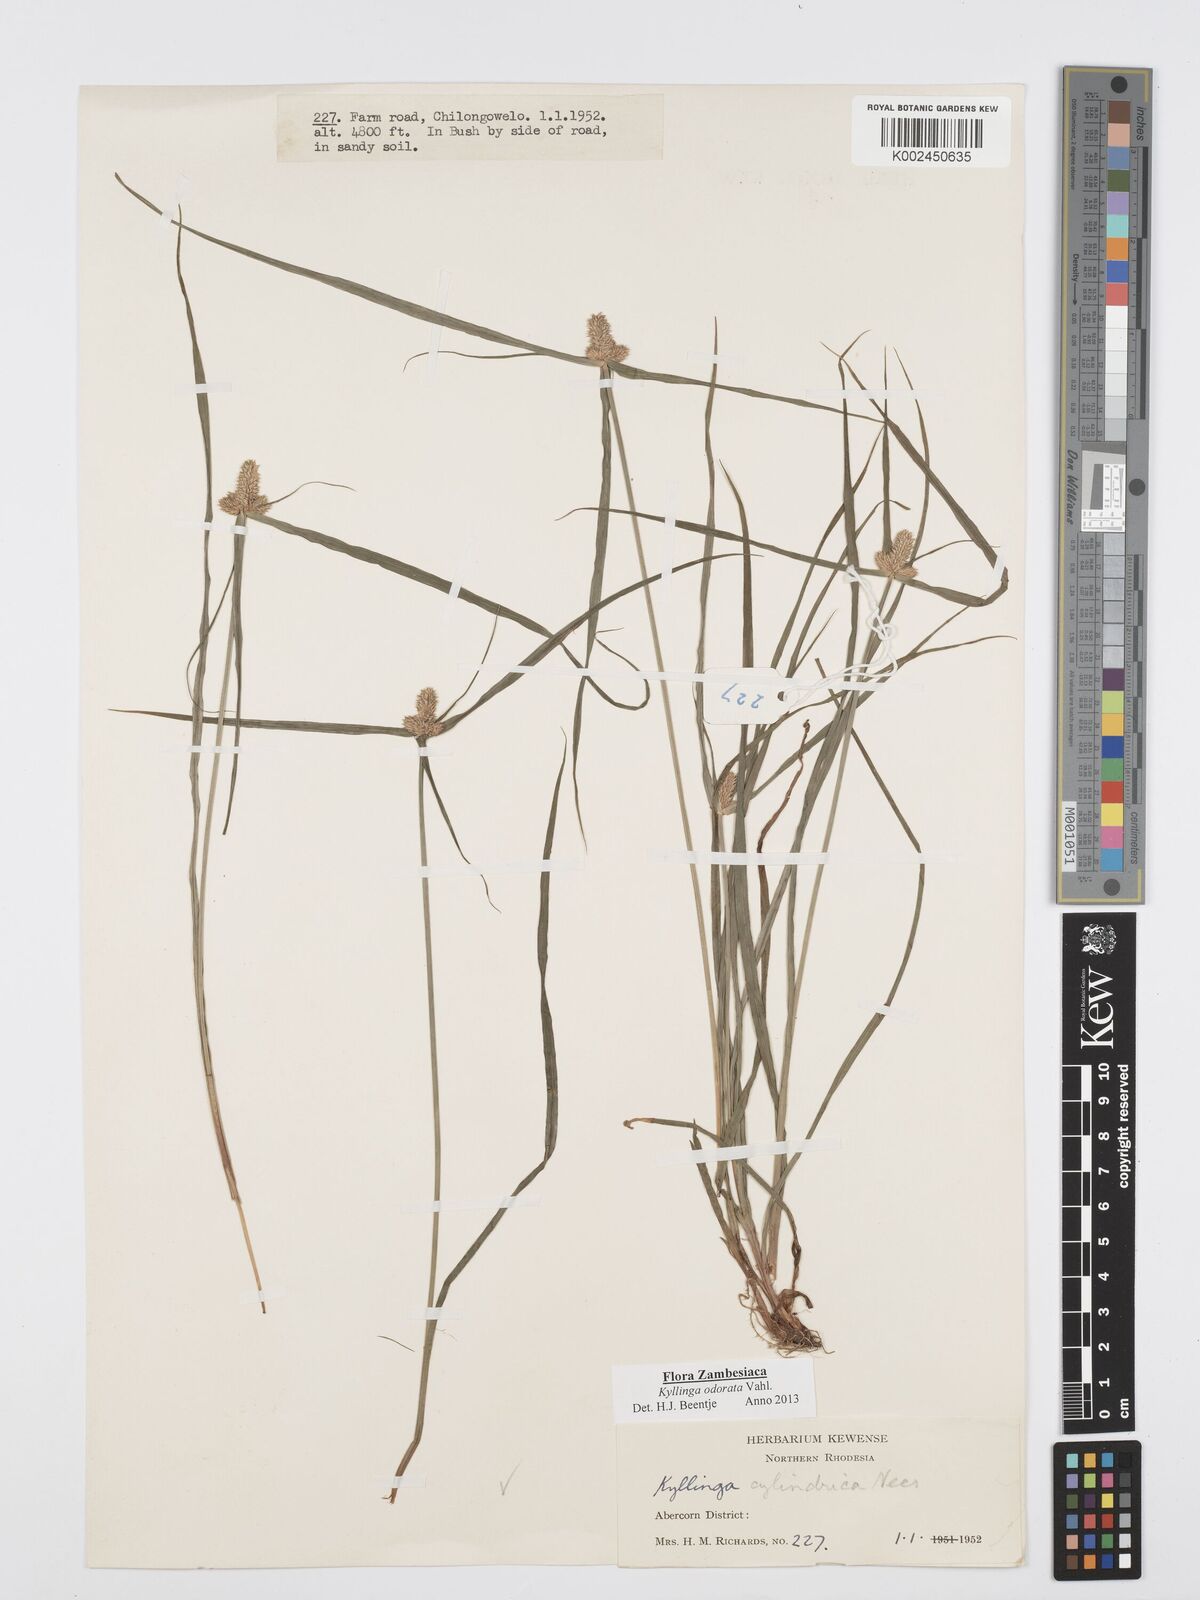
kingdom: Plantae
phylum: Tracheophyta
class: Liliopsida
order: Poales
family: Cyperaceae
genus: Cyperus
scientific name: Cyperus
